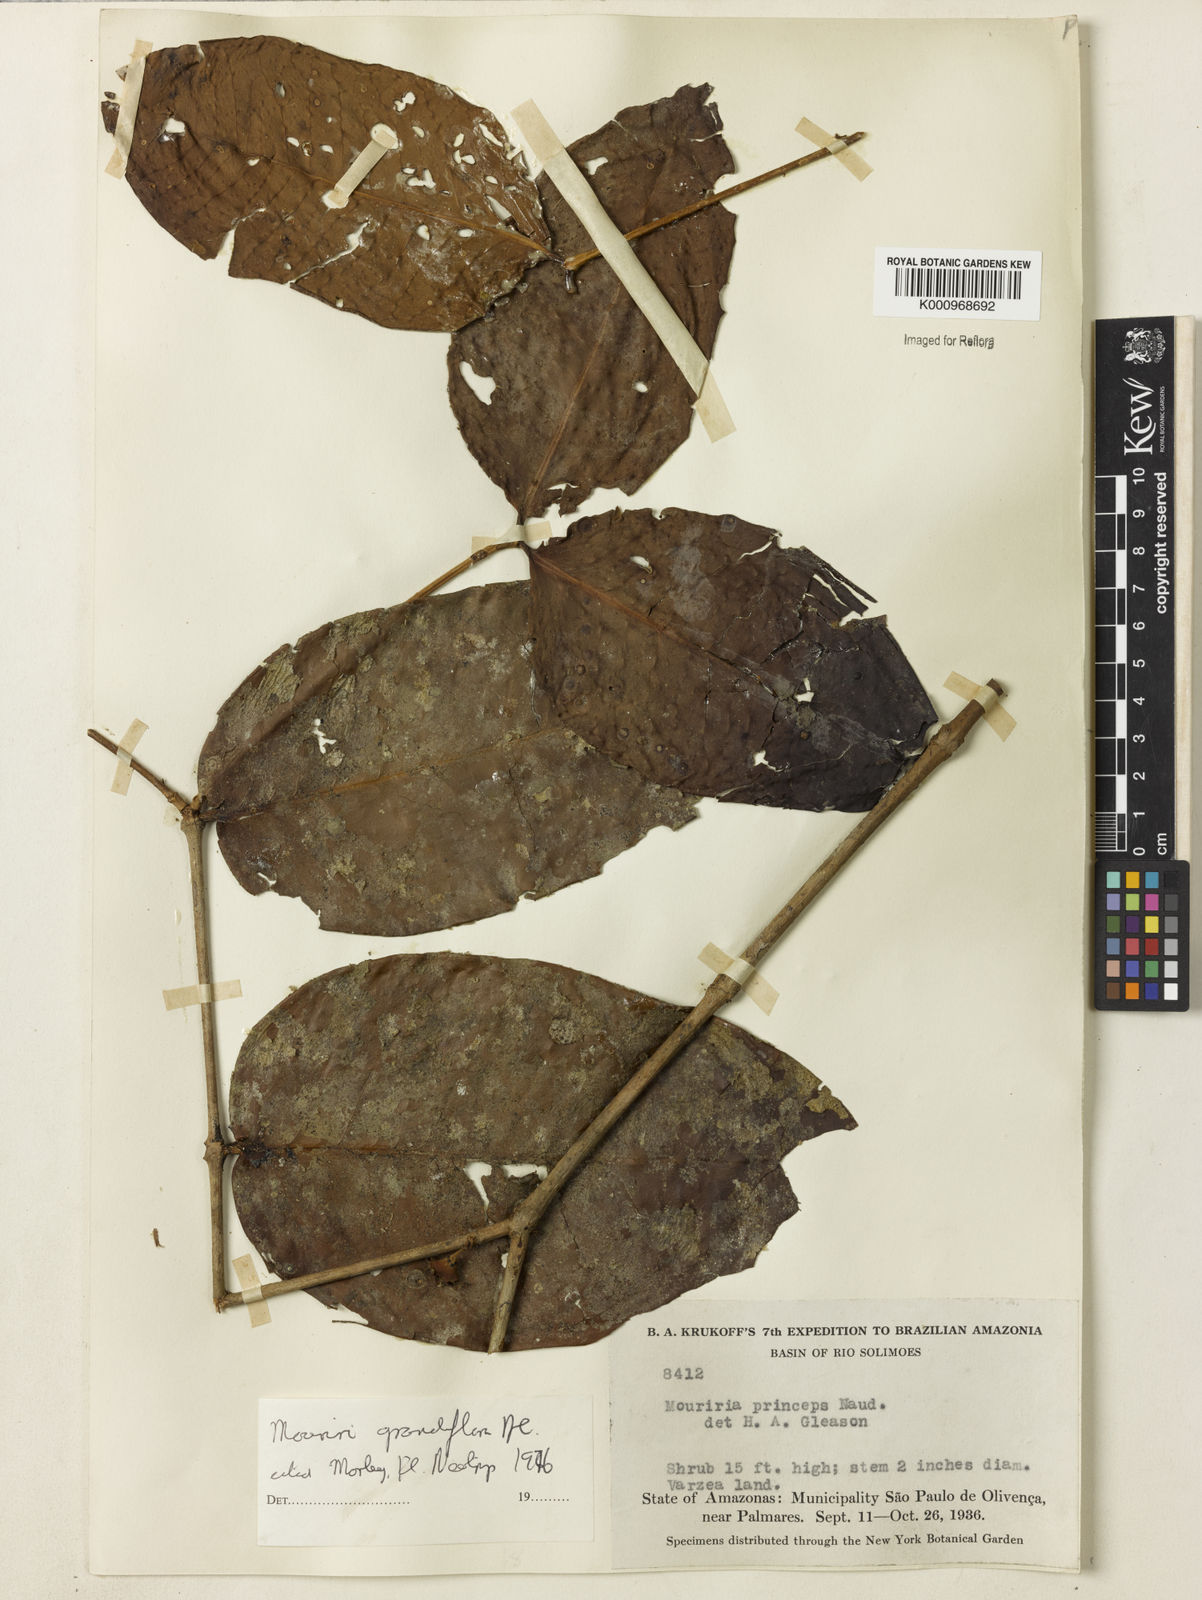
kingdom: Plantae
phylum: Tracheophyta
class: Magnoliopsida
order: Myrtales
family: Melastomataceae
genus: Mouriri
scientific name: Mouriri grandiflora
